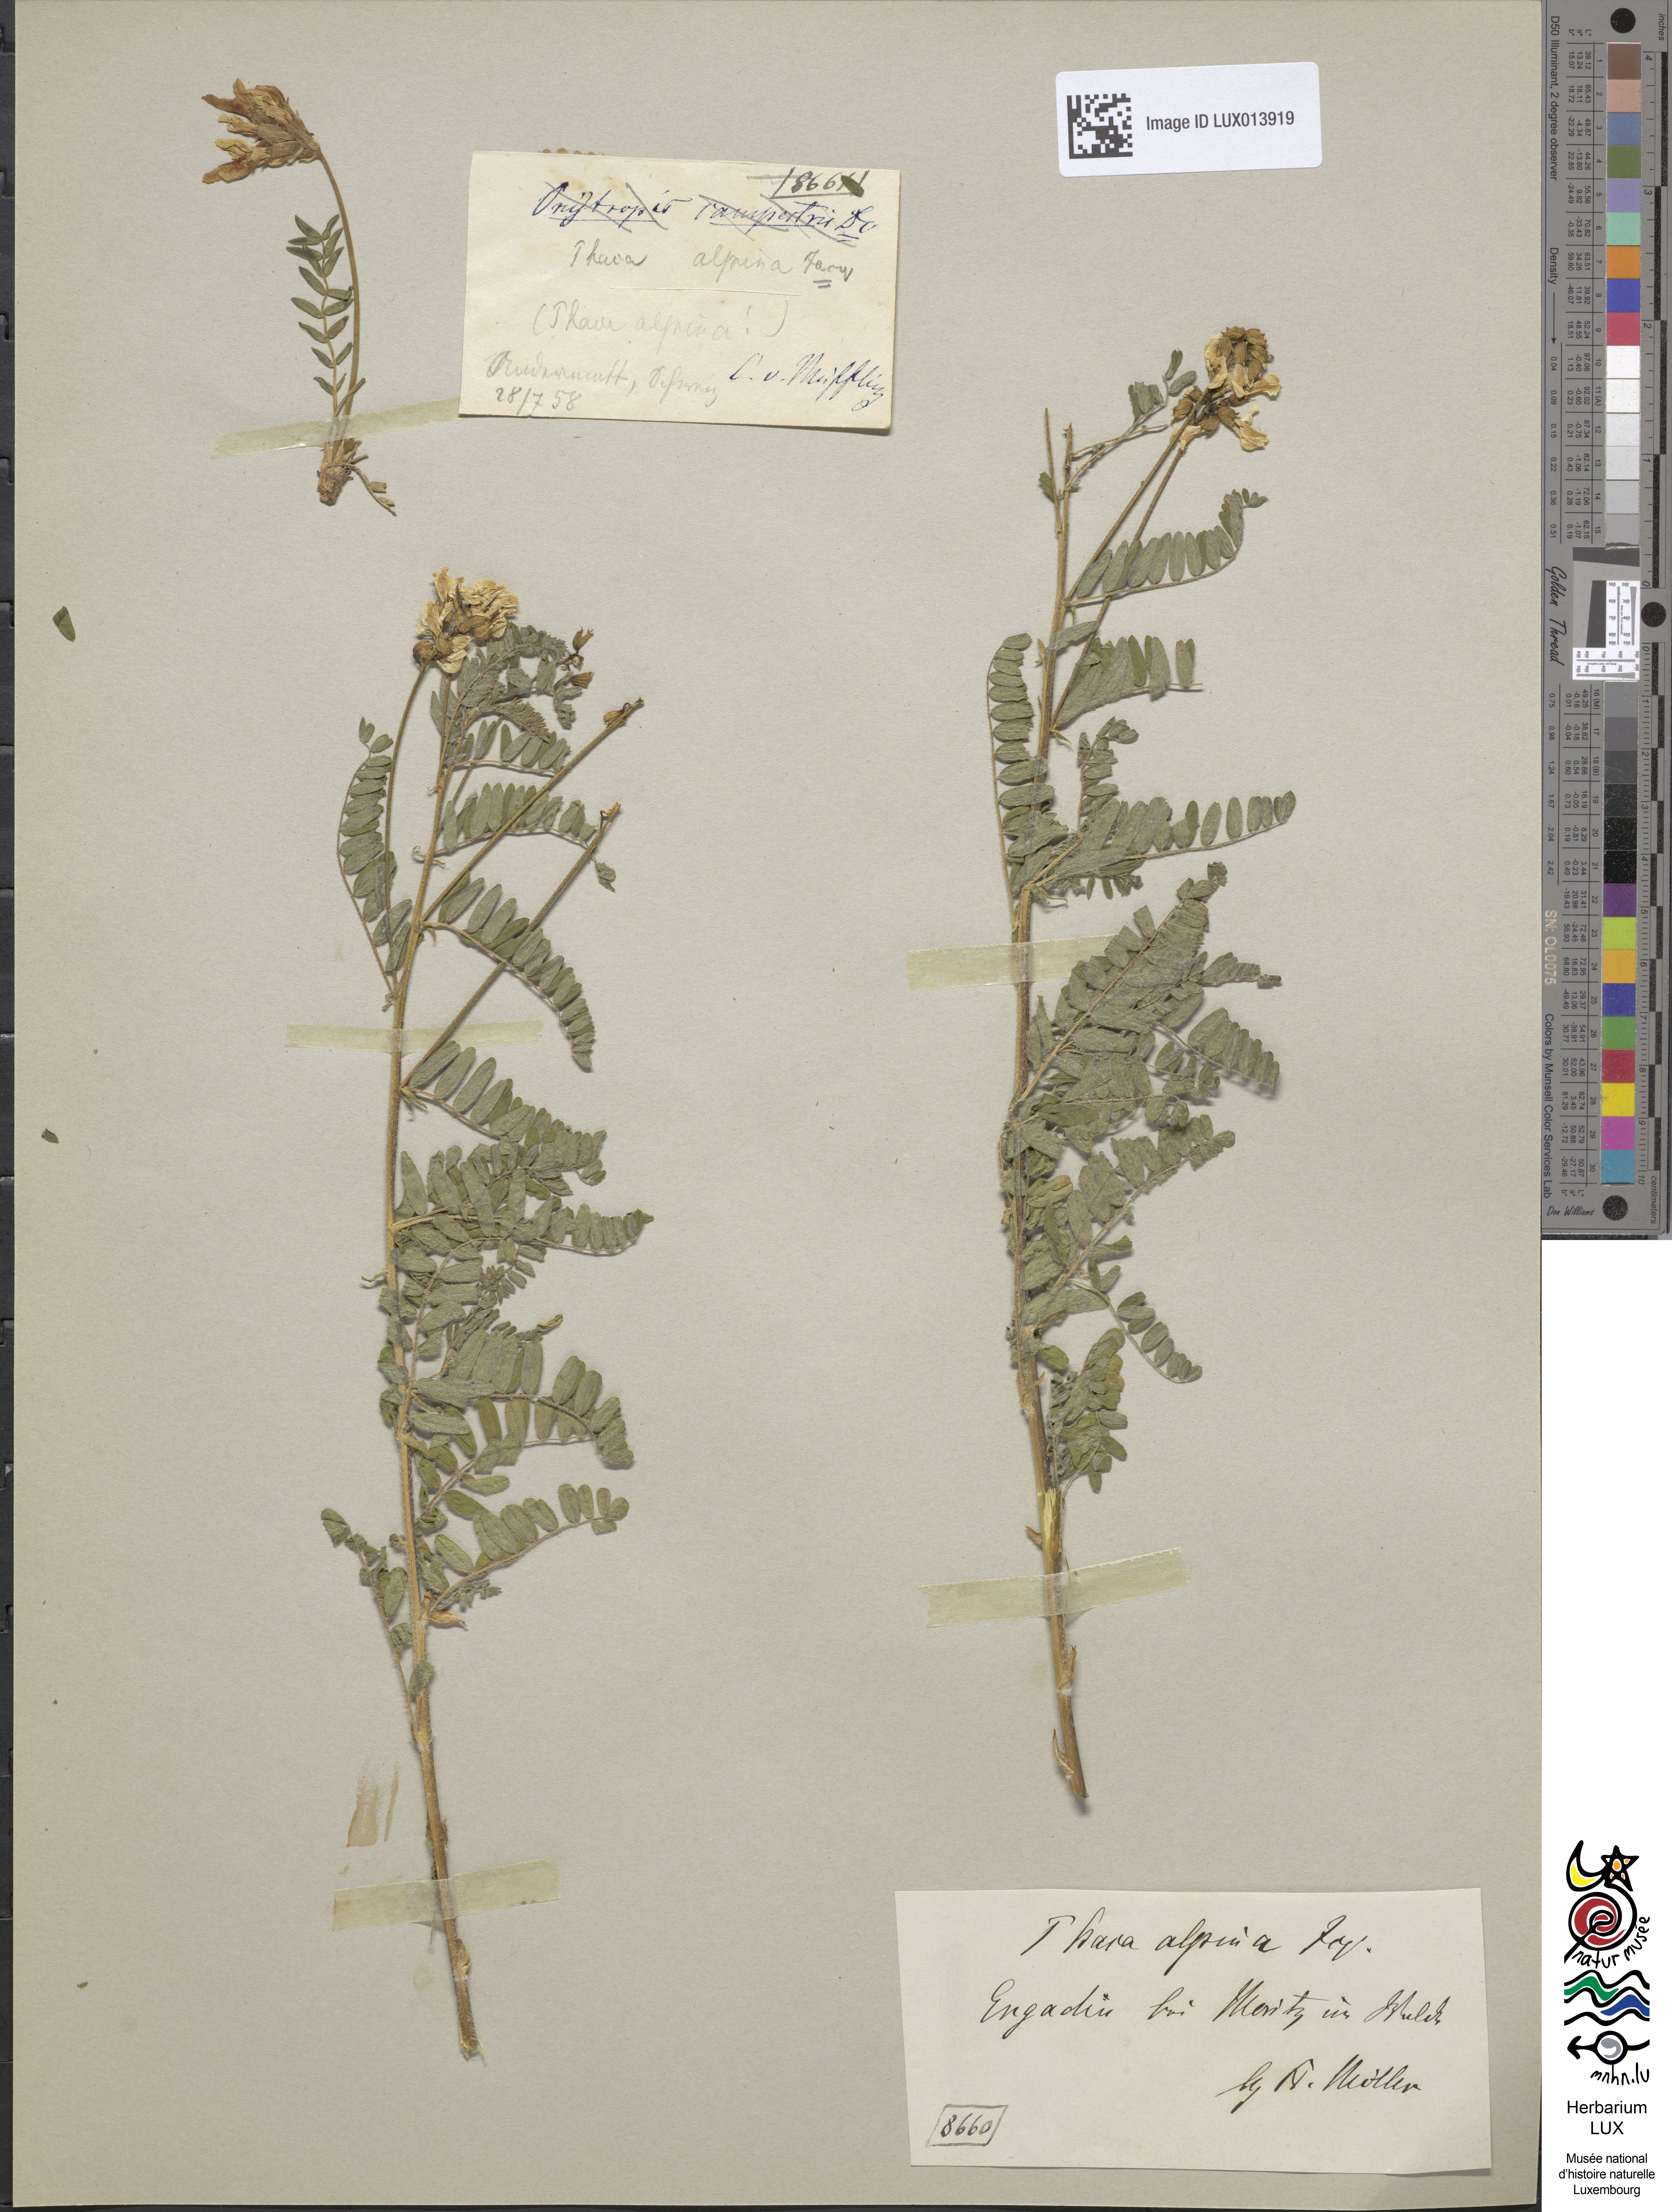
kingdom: Plantae
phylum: Tracheophyta
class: Magnoliopsida
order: Fabales
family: Fabaceae
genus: Astragalus
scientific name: Astragalus penduliflorus
